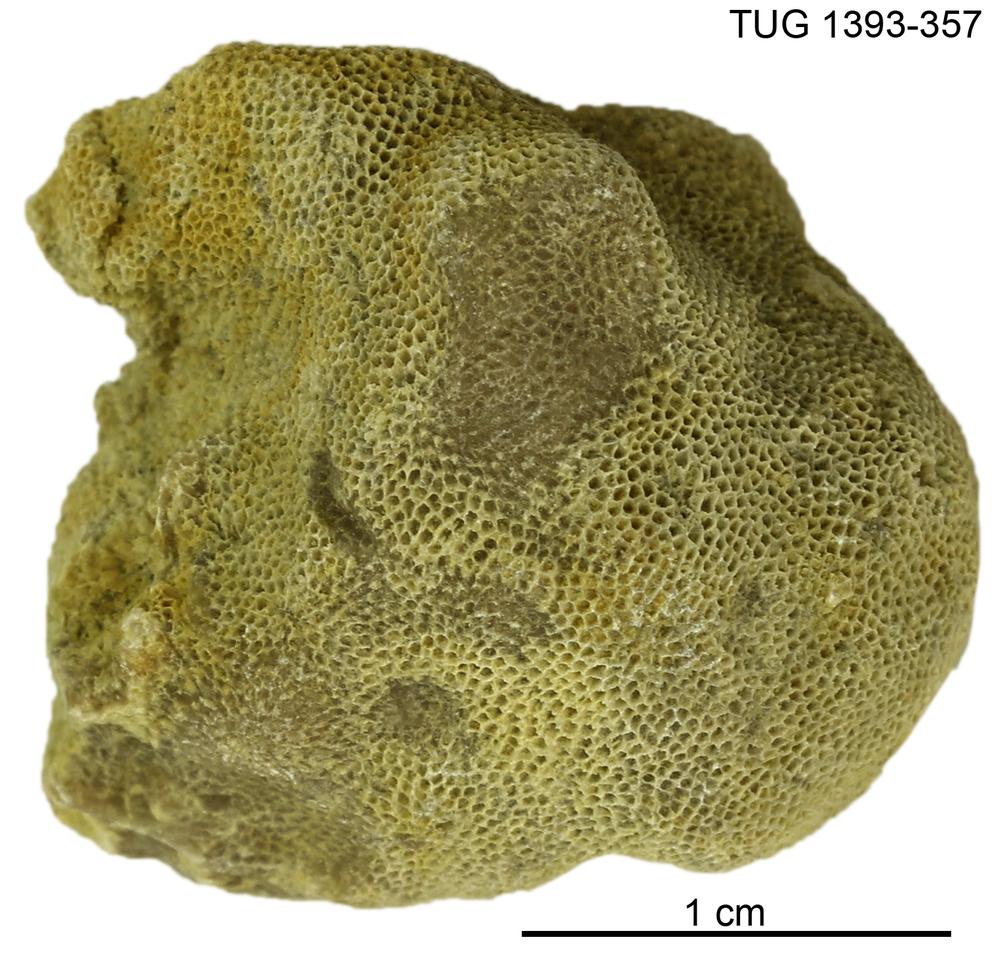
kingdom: Animalia
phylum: Bryozoa
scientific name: Bryozoa
